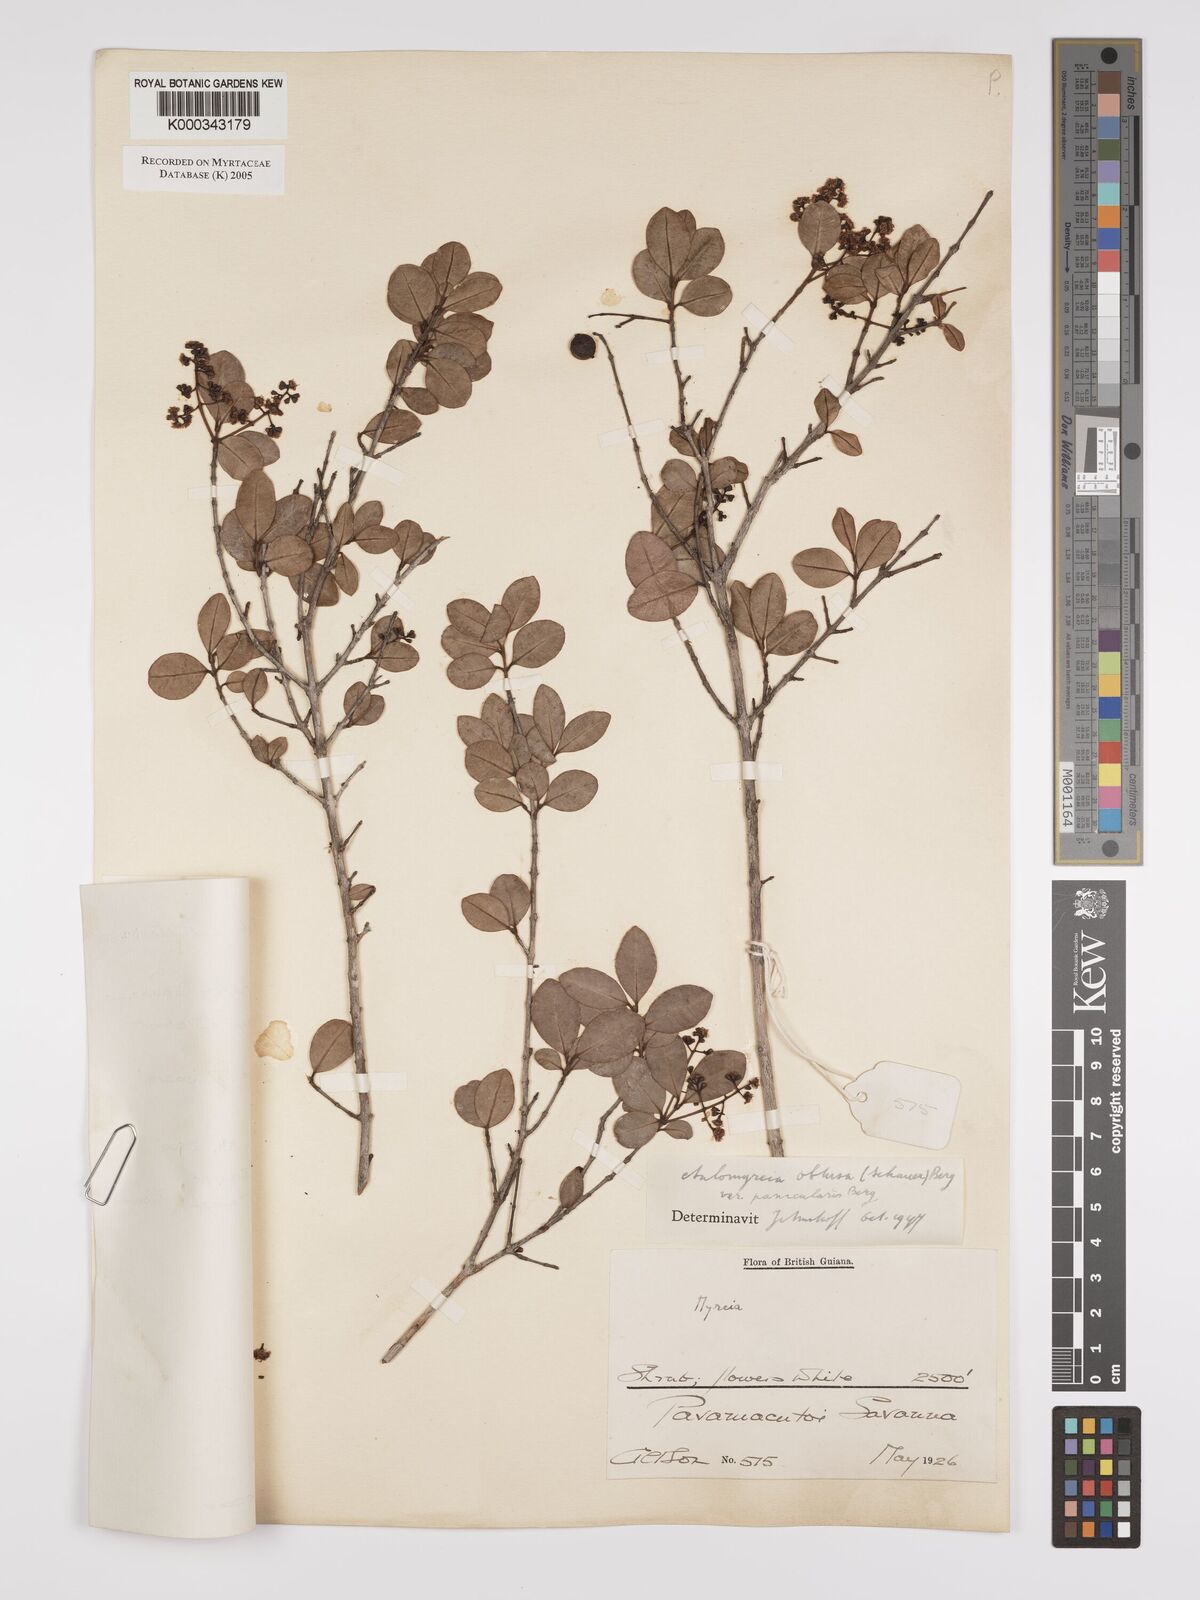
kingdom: Plantae
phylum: Tracheophyta
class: Magnoliopsida
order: Myrtales
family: Myrtaceae
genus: Myrcia
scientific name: Myrcia guianensis
